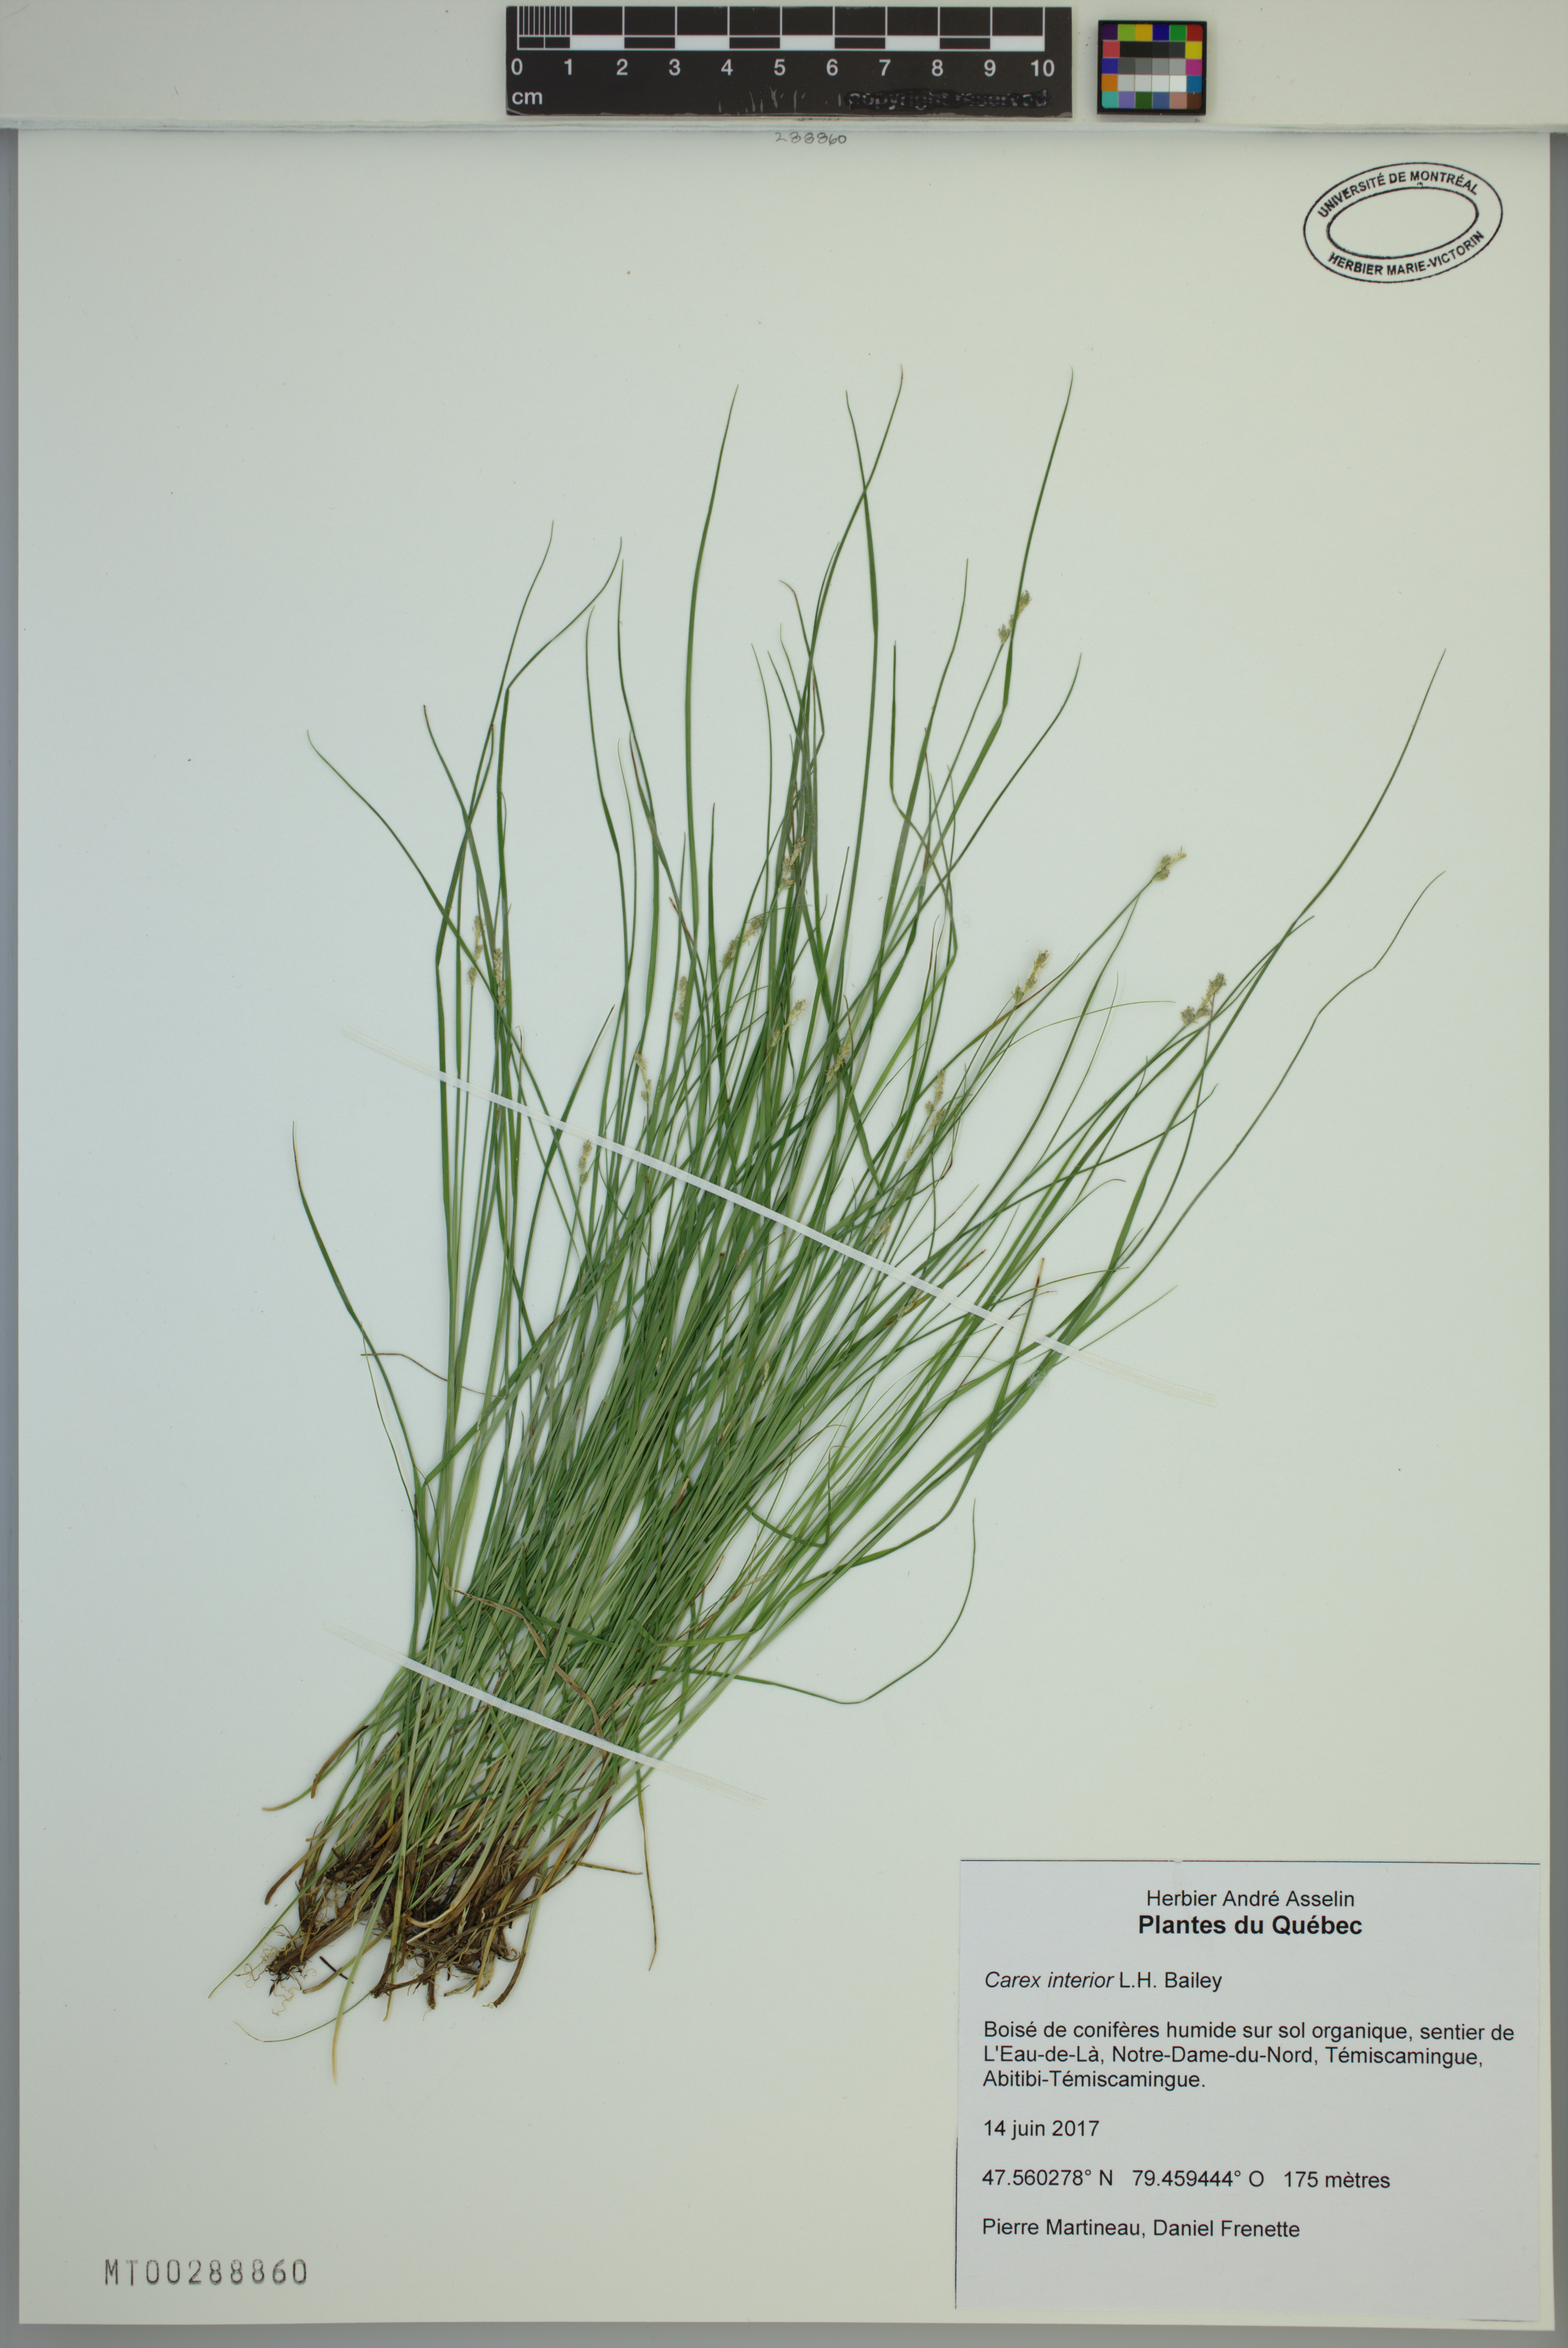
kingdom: Plantae
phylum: Tracheophyta
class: Liliopsida
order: Poales
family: Cyperaceae
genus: Carex
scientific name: Carex interior
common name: Inland sedge
